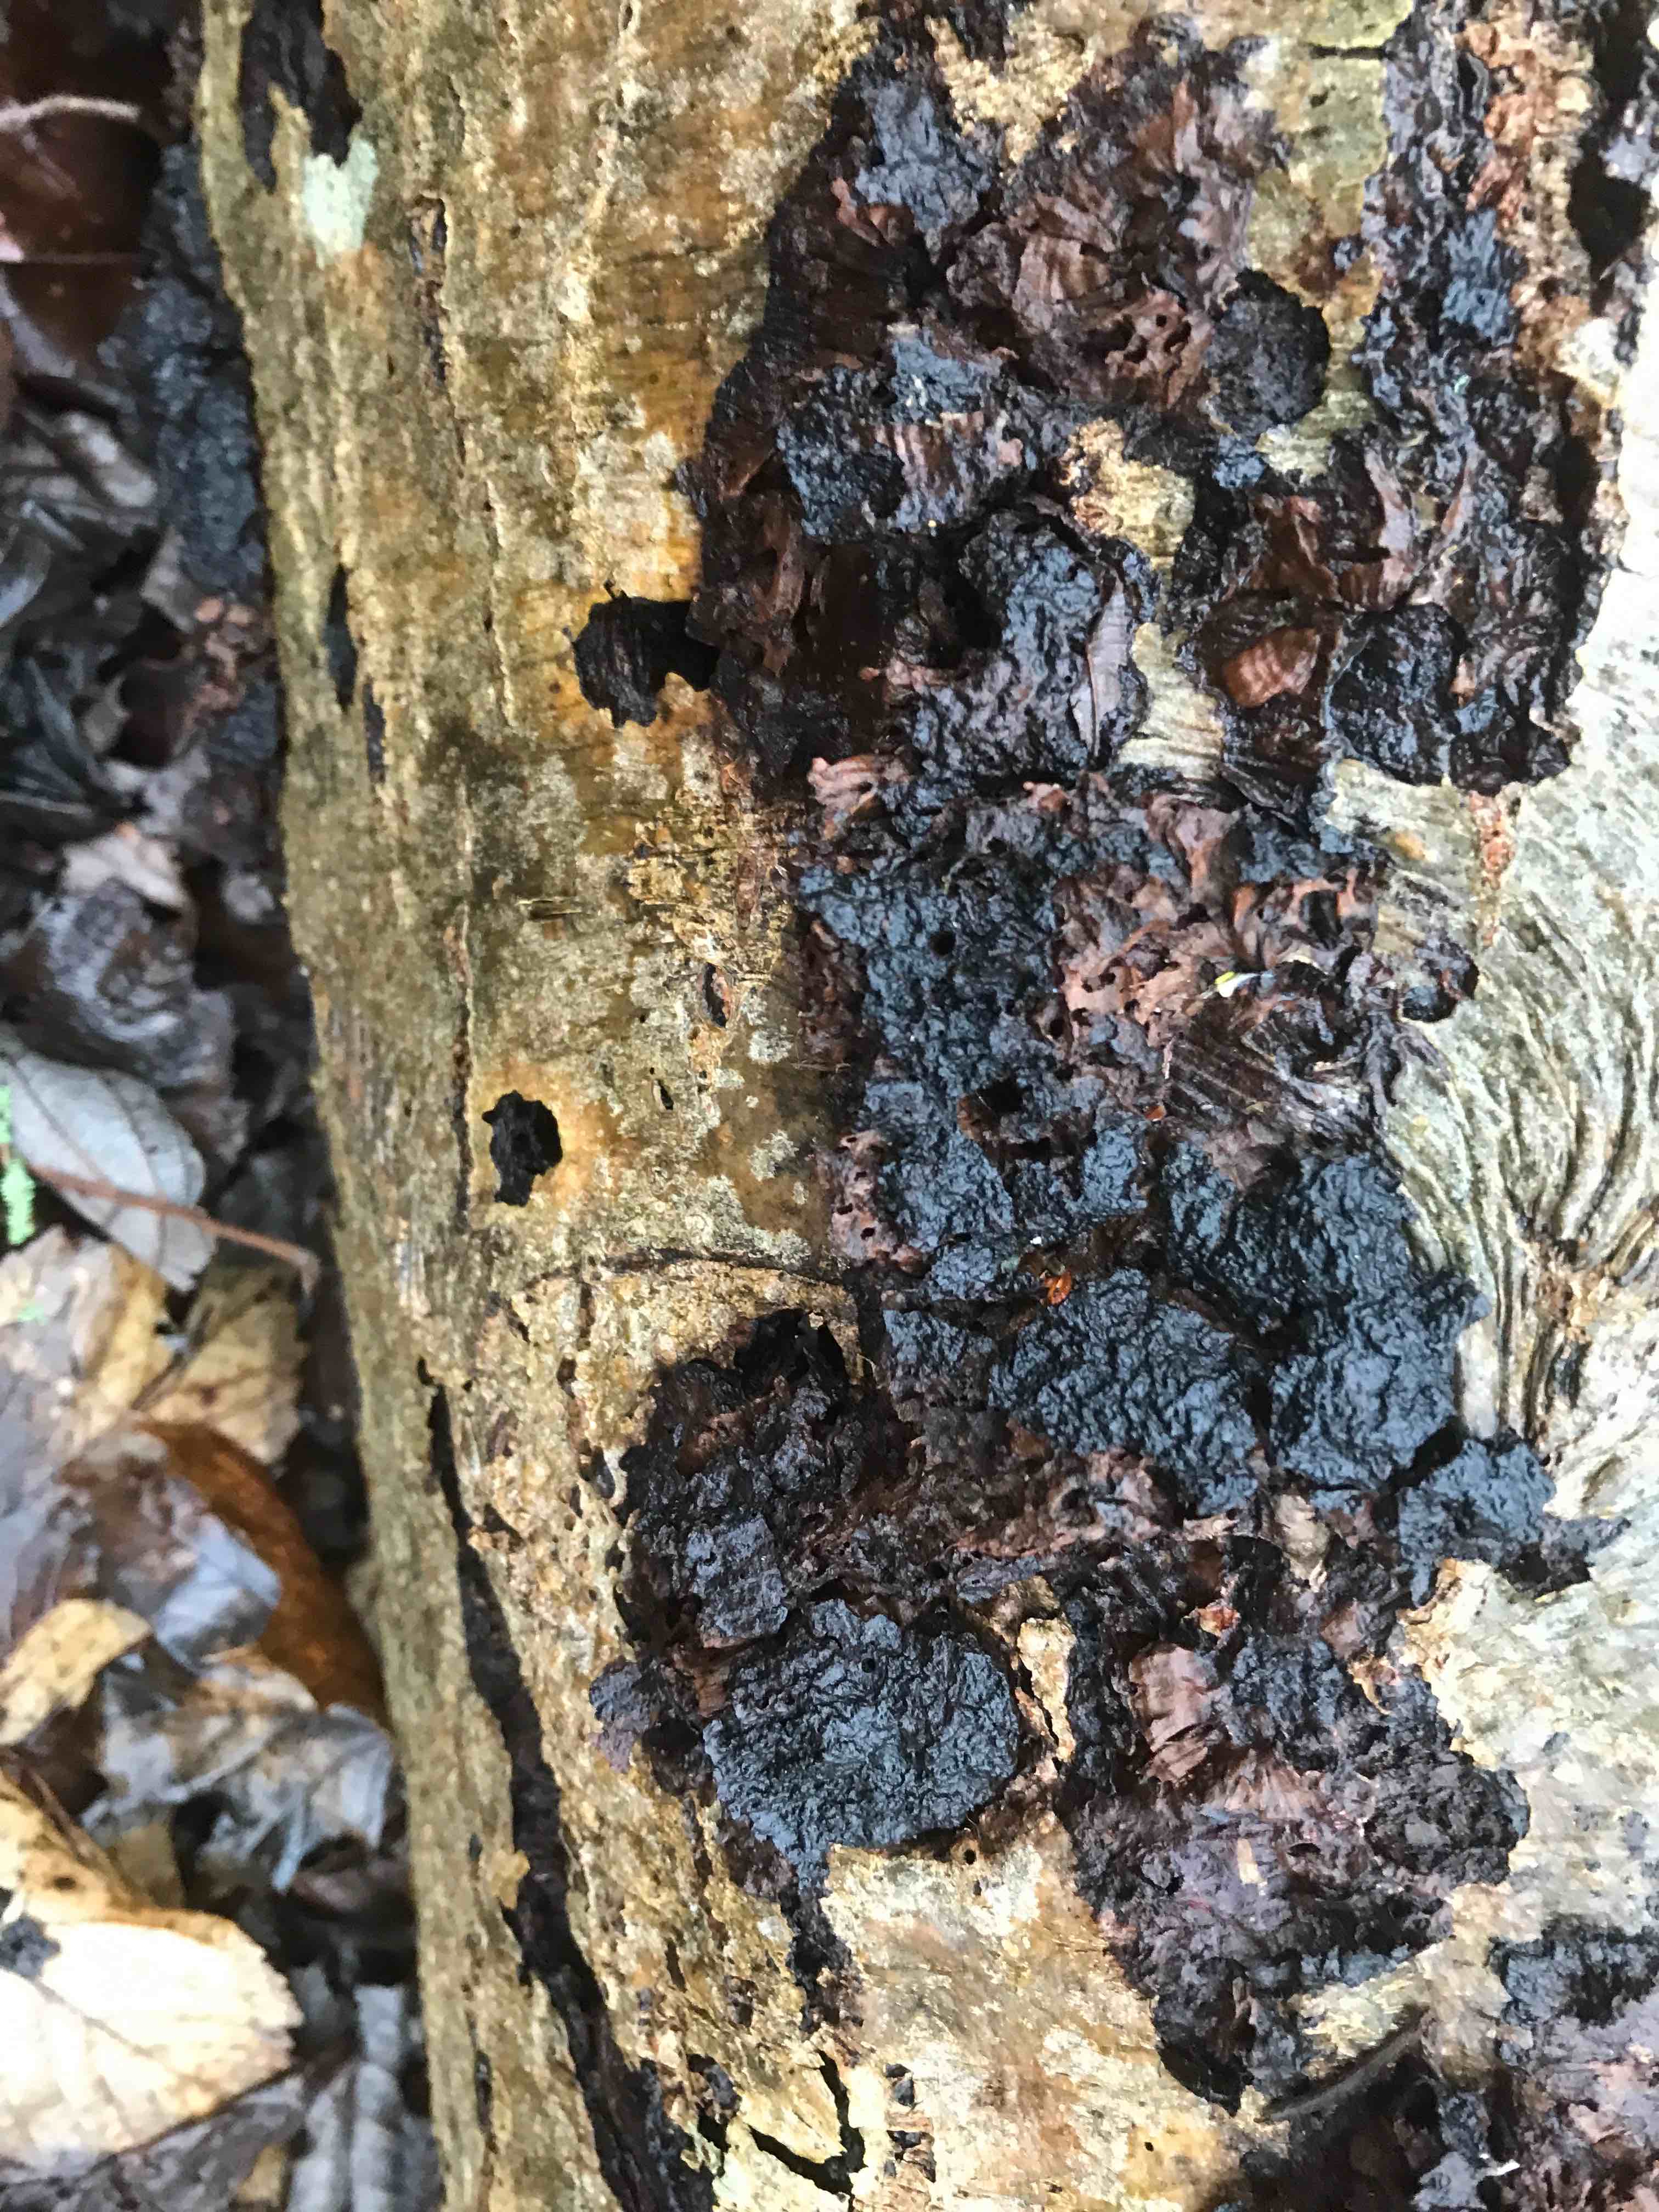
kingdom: Fungi
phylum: Basidiomycota
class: Agaricomycetes
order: Hymenochaetales
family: Hymenochaetaceae
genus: Xanthoporia
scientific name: Xanthoporia radiata
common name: elle-spejlporesvamp
